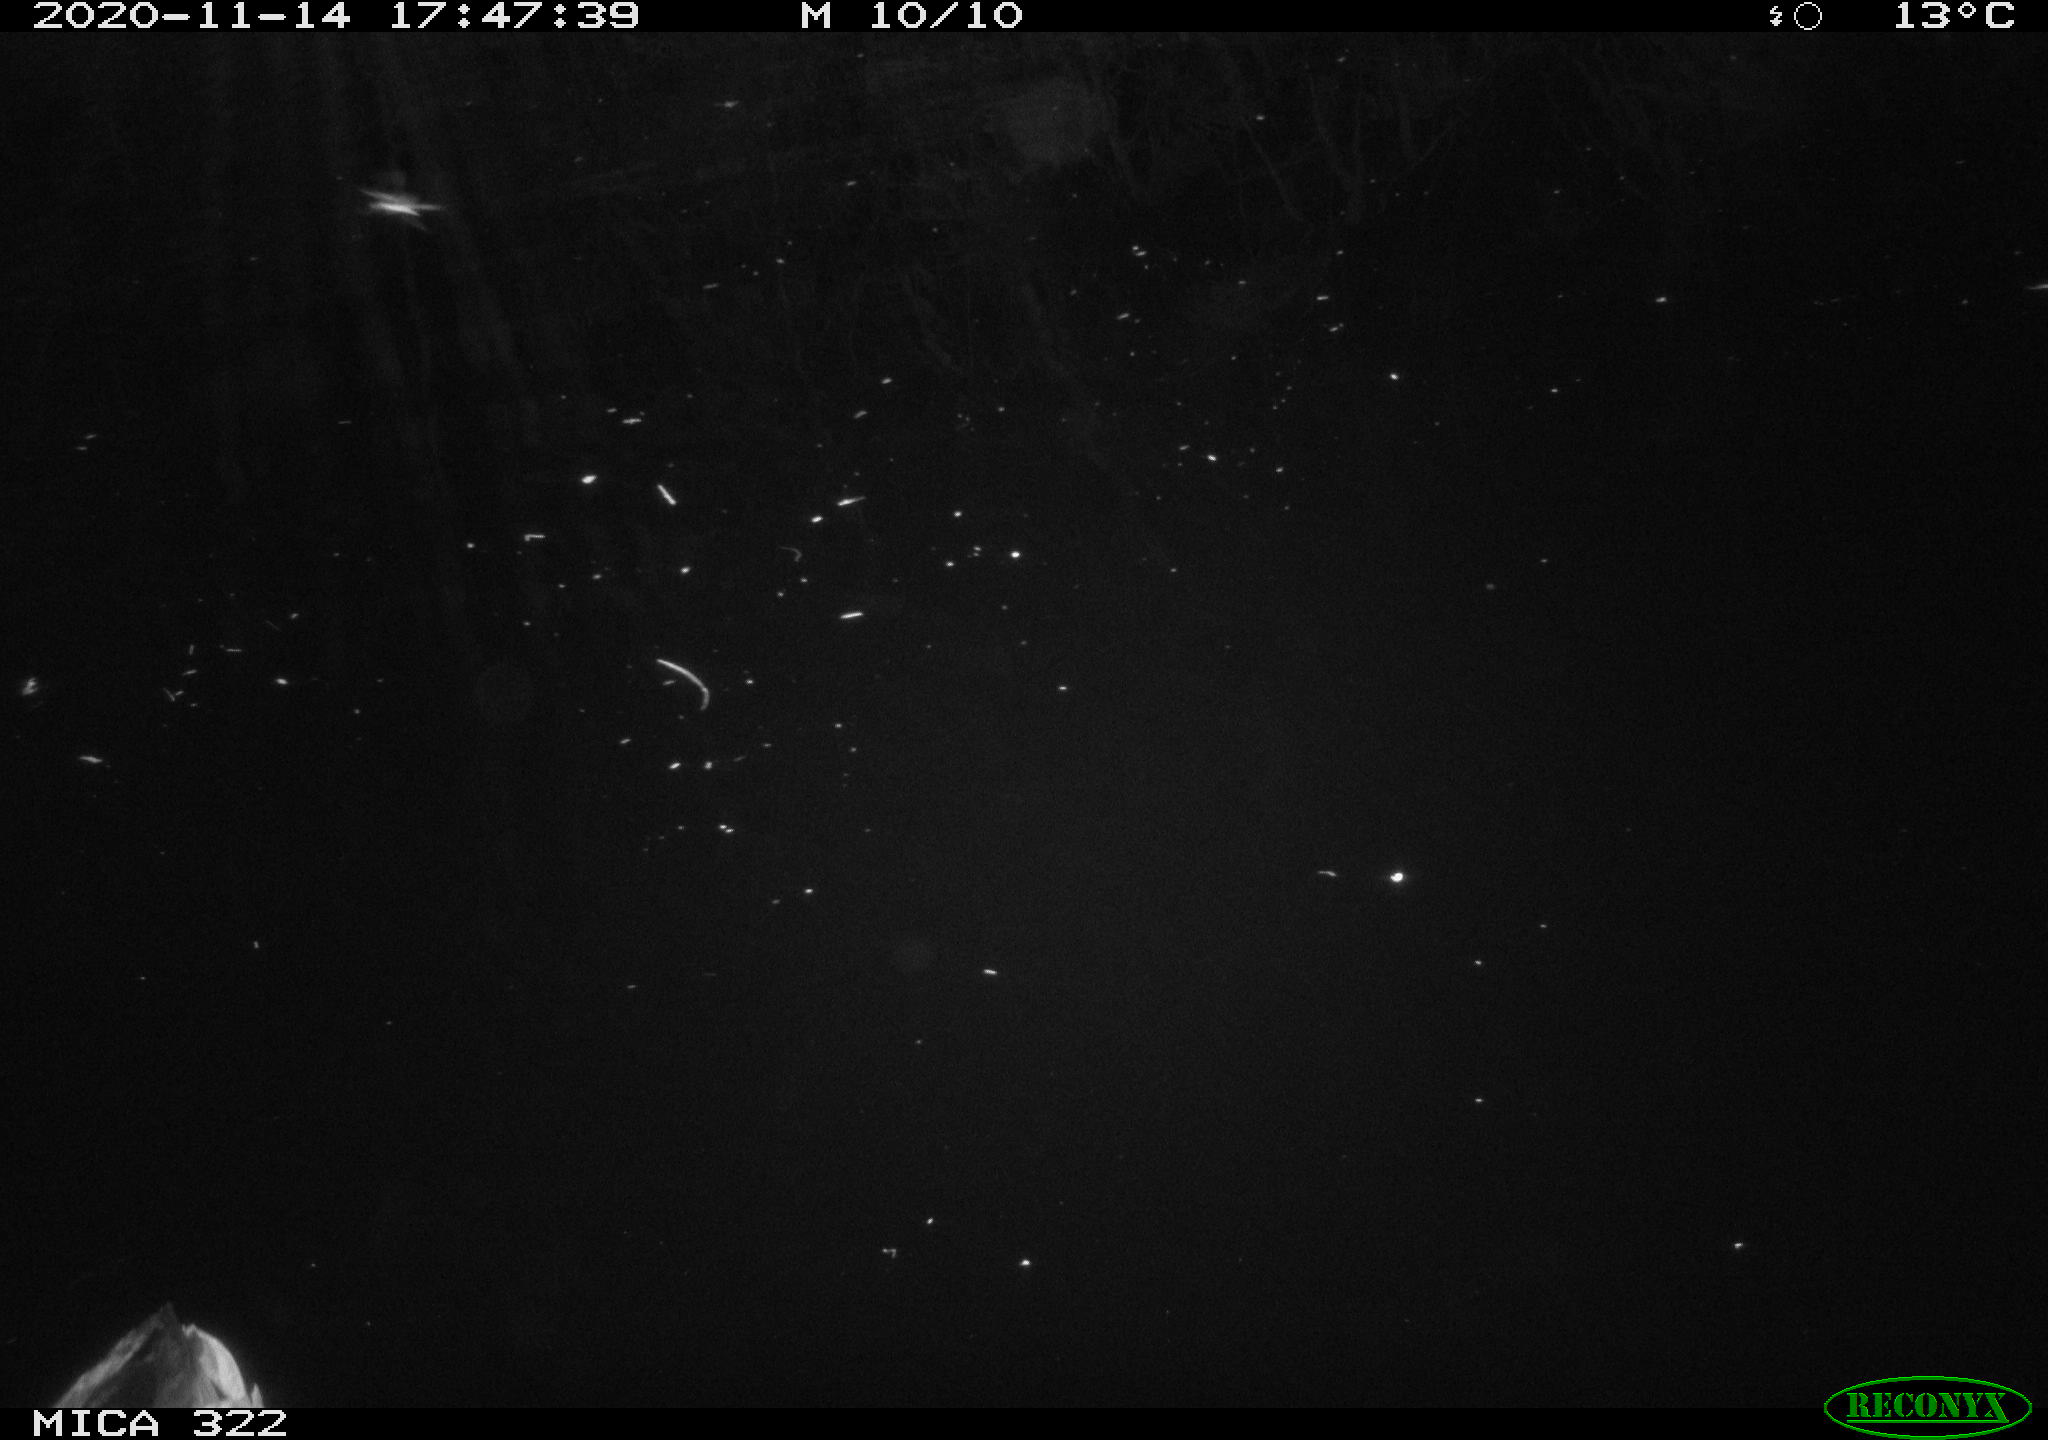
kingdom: Animalia
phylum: Chordata
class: Aves
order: Anseriformes
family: Anatidae
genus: Anas
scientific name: Anas platyrhynchos
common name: Mallard
